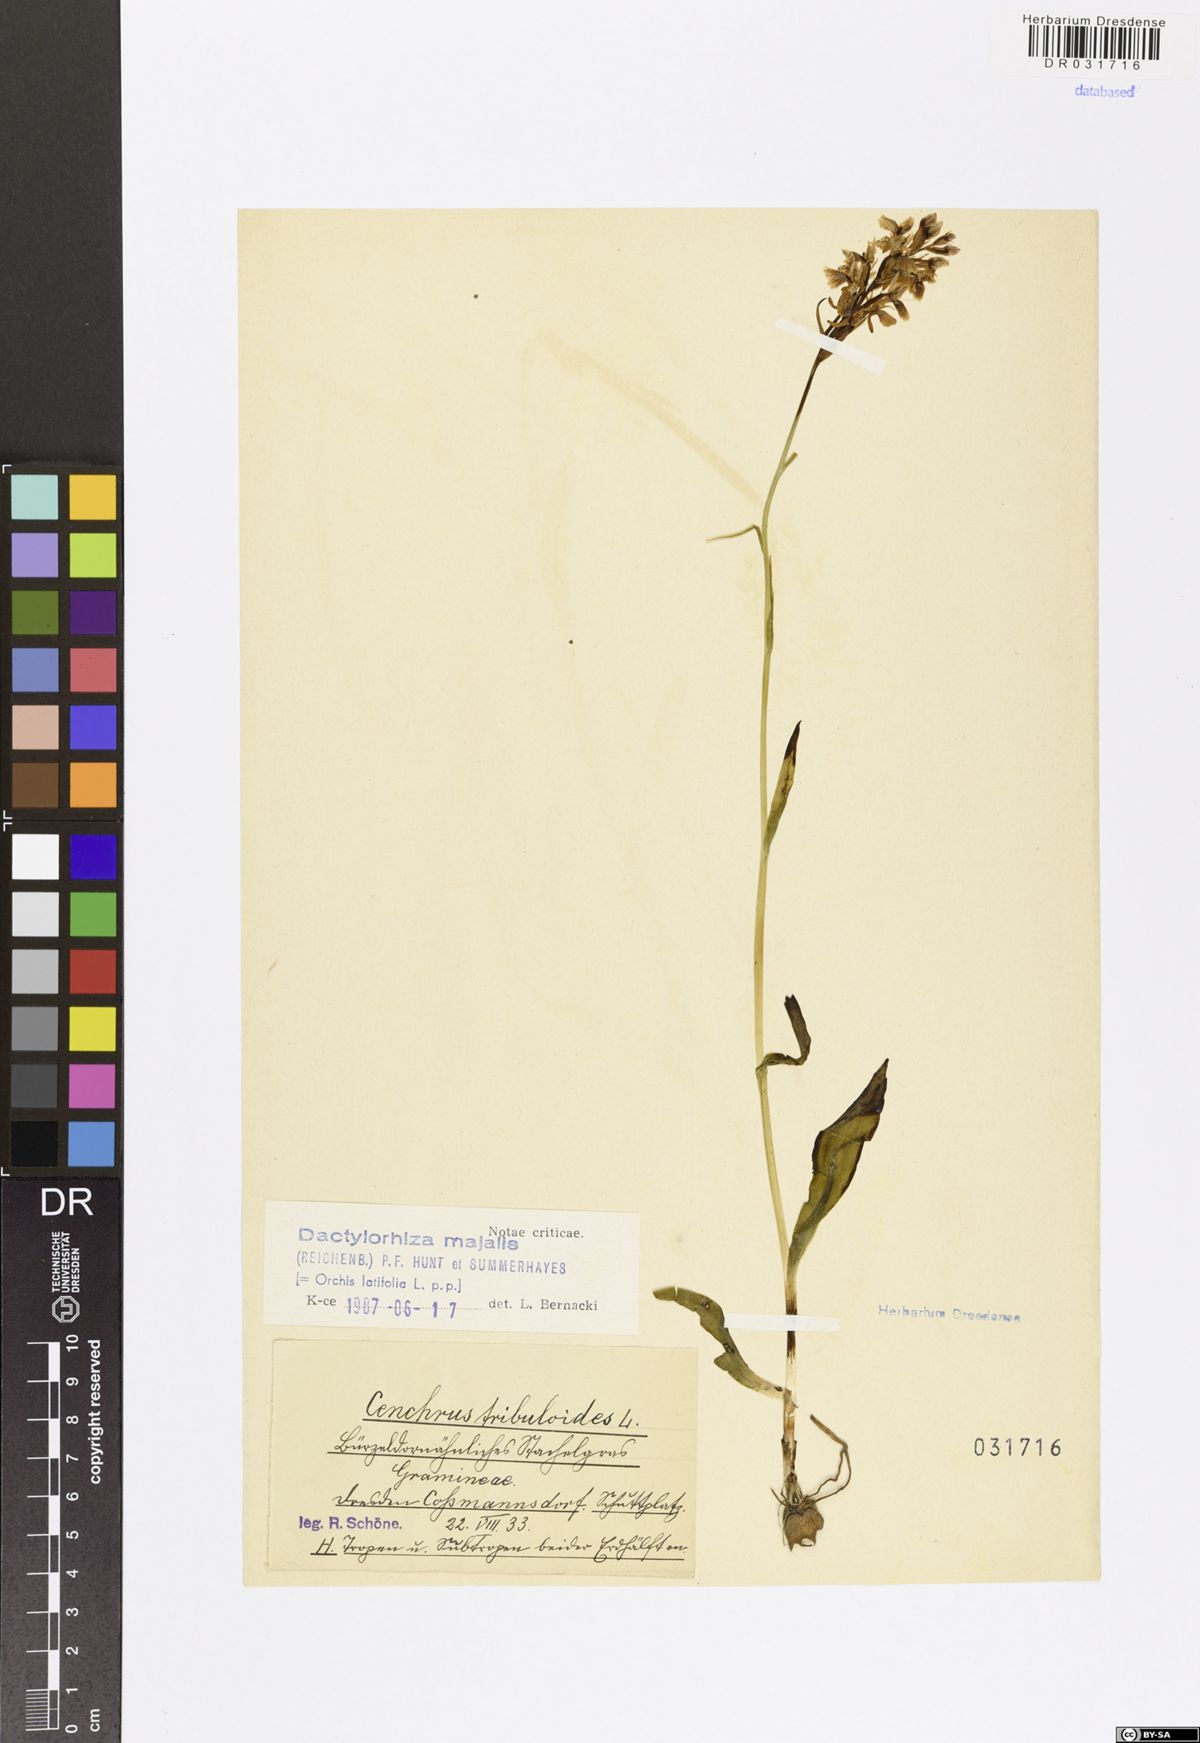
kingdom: Plantae
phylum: Tracheophyta
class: Liliopsida
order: Asparagales
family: Orchidaceae
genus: Dactylorhiza
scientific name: Dactylorhiza majalis
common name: Marsh orchid
